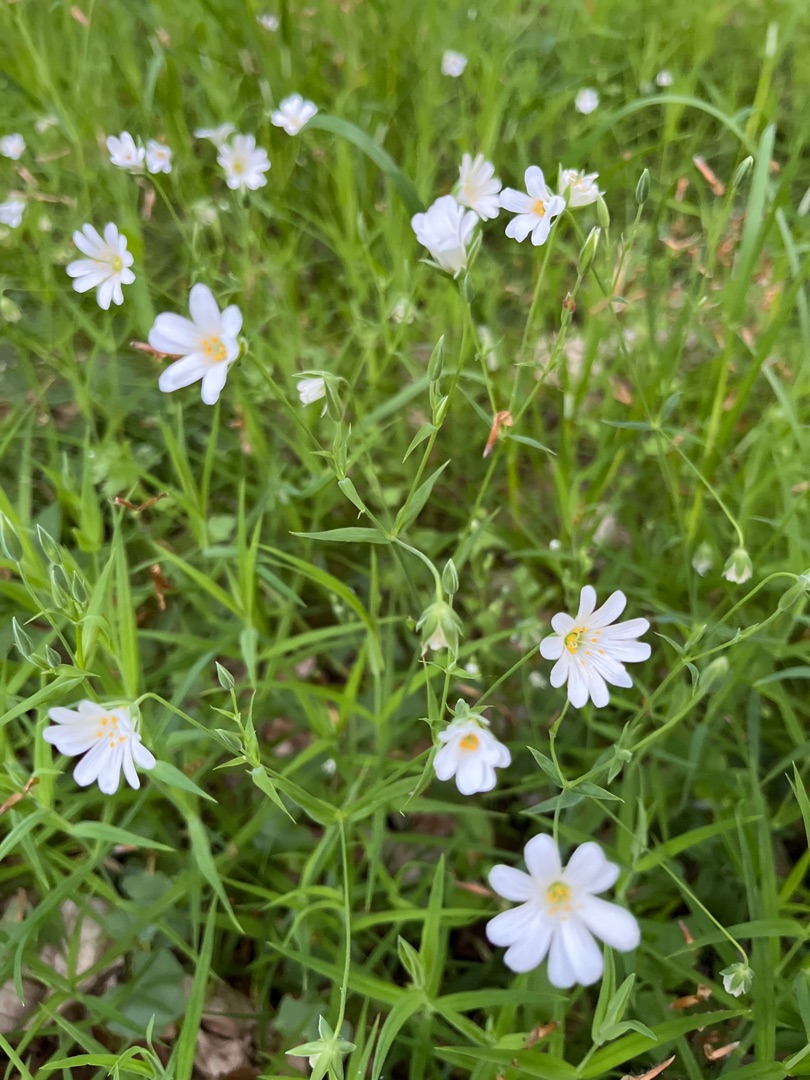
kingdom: Plantae
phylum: Tracheophyta
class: Magnoliopsida
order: Caryophyllales
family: Caryophyllaceae
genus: Rabelera
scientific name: Rabelera holostea
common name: Stor fladstjerne
